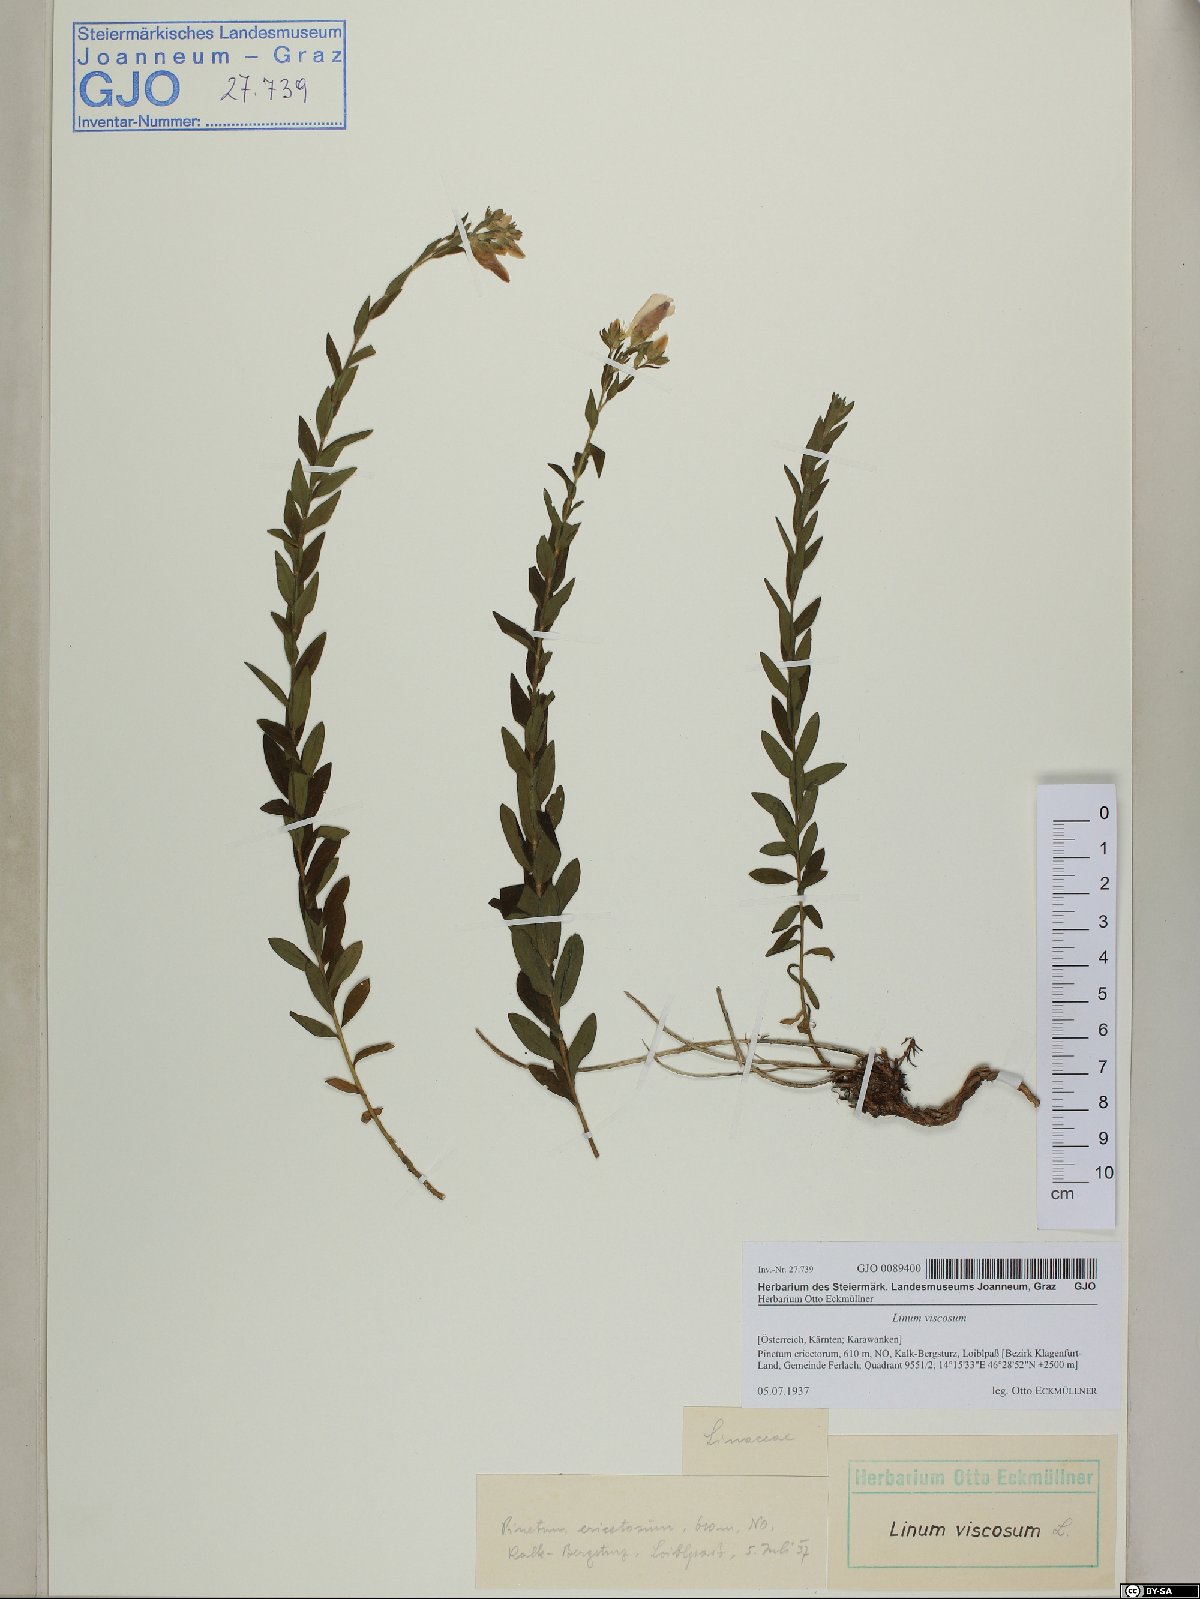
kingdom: Plantae
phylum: Tracheophyta
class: Magnoliopsida
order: Malpighiales
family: Linaceae
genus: Linum
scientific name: Linum viscosum
